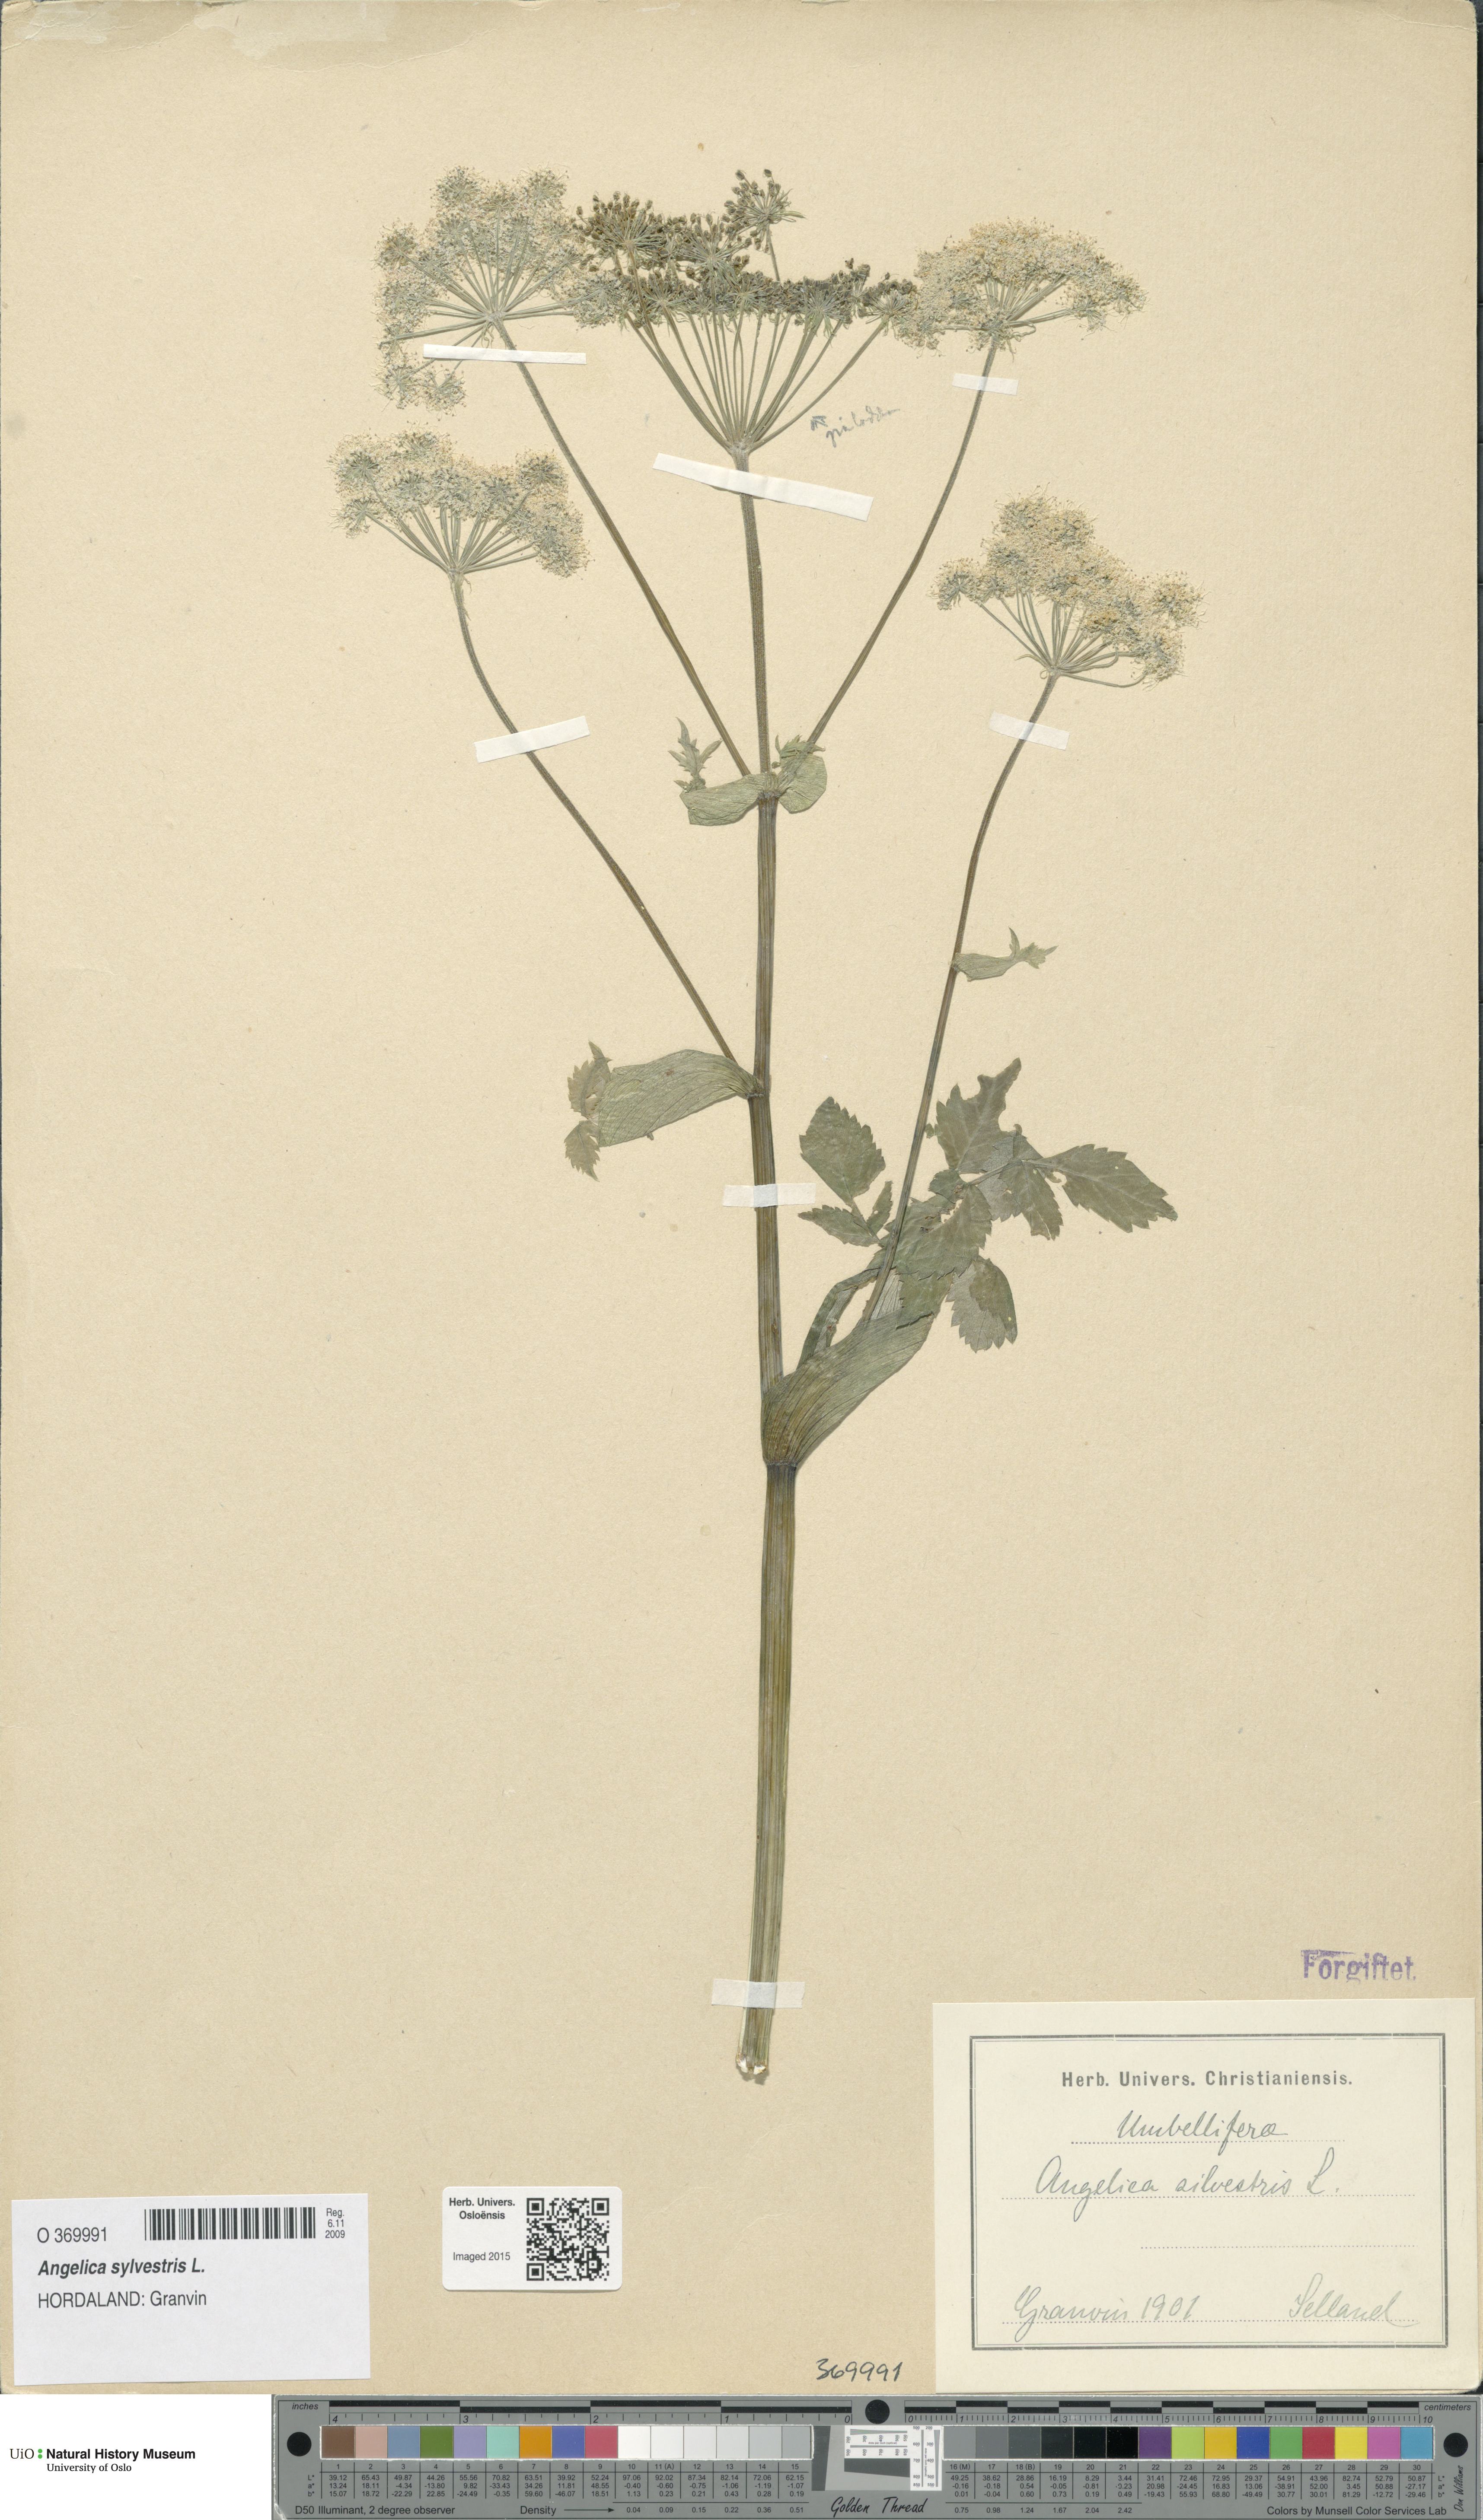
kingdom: Plantae
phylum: Tracheophyta
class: Magnoliopsida
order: Apiales
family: Apiaceae
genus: Angelica
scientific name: Angelica sylvestris
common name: Wild angelica
